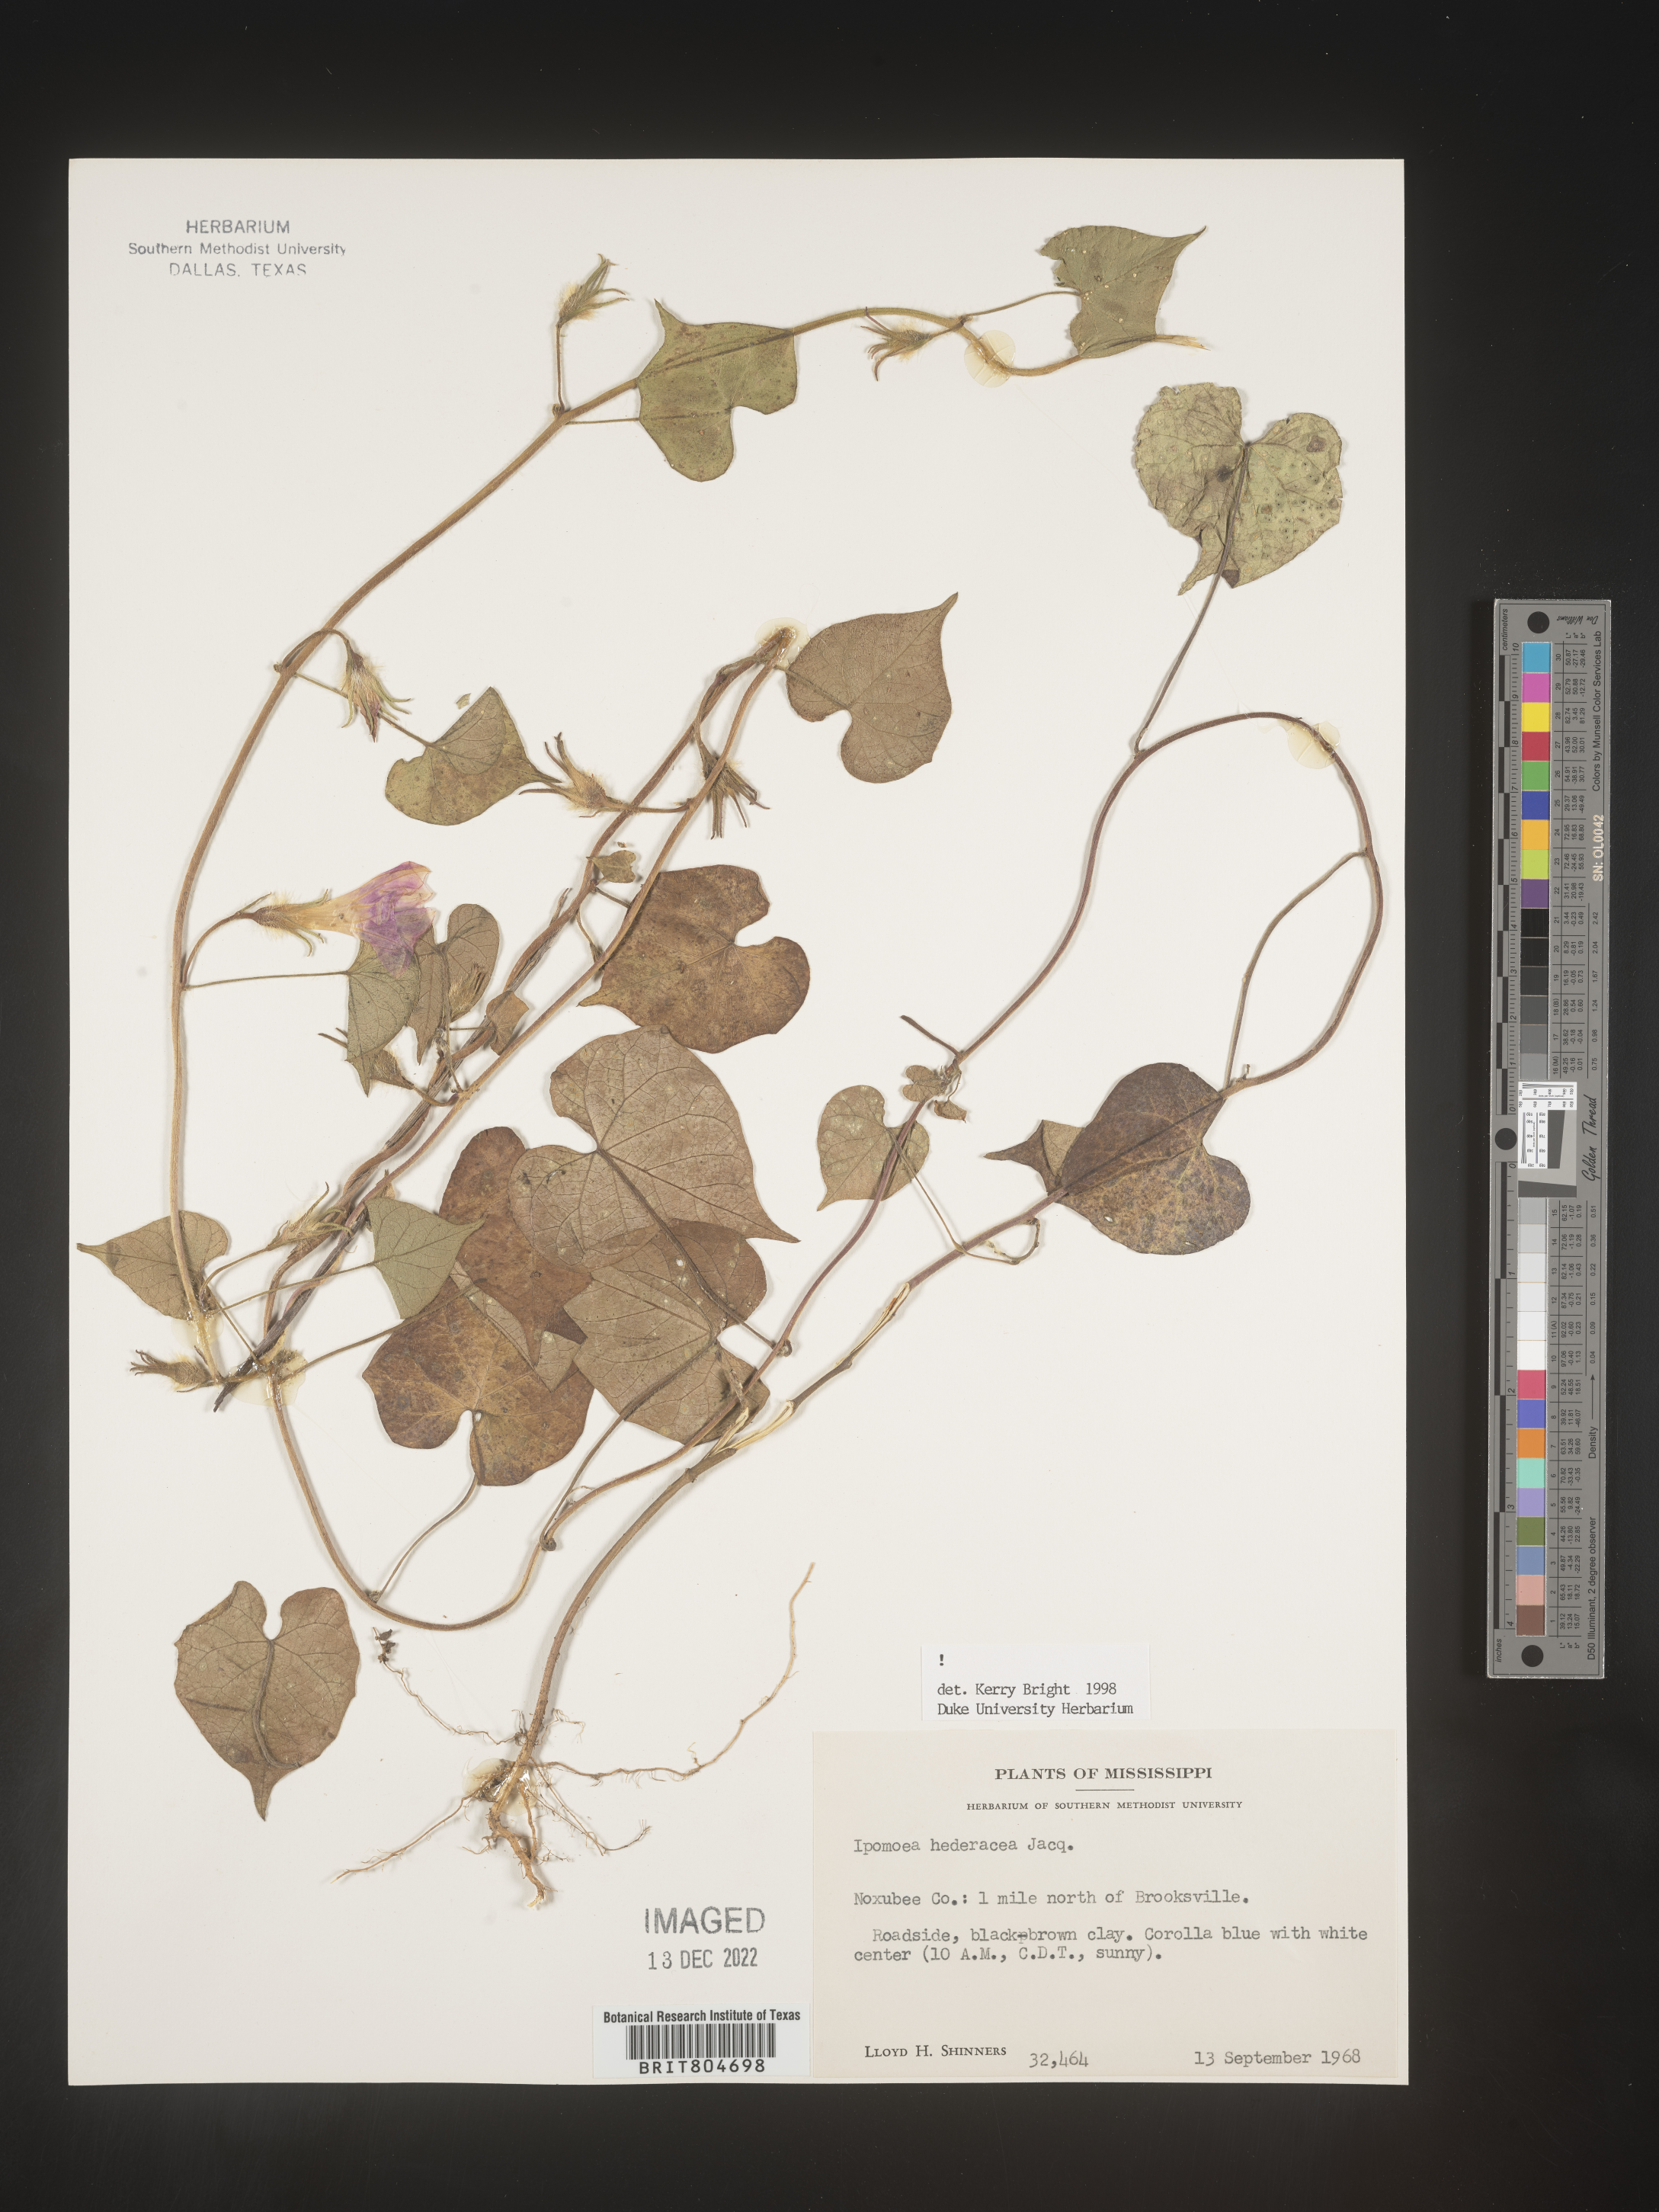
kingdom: Plantae
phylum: Tracheophyta
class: Magnoliopsida
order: Solanales
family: Convolvulaceae
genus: Ipomoea
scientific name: Ipomoea hederacea
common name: Ivy-leaved morning-glory
